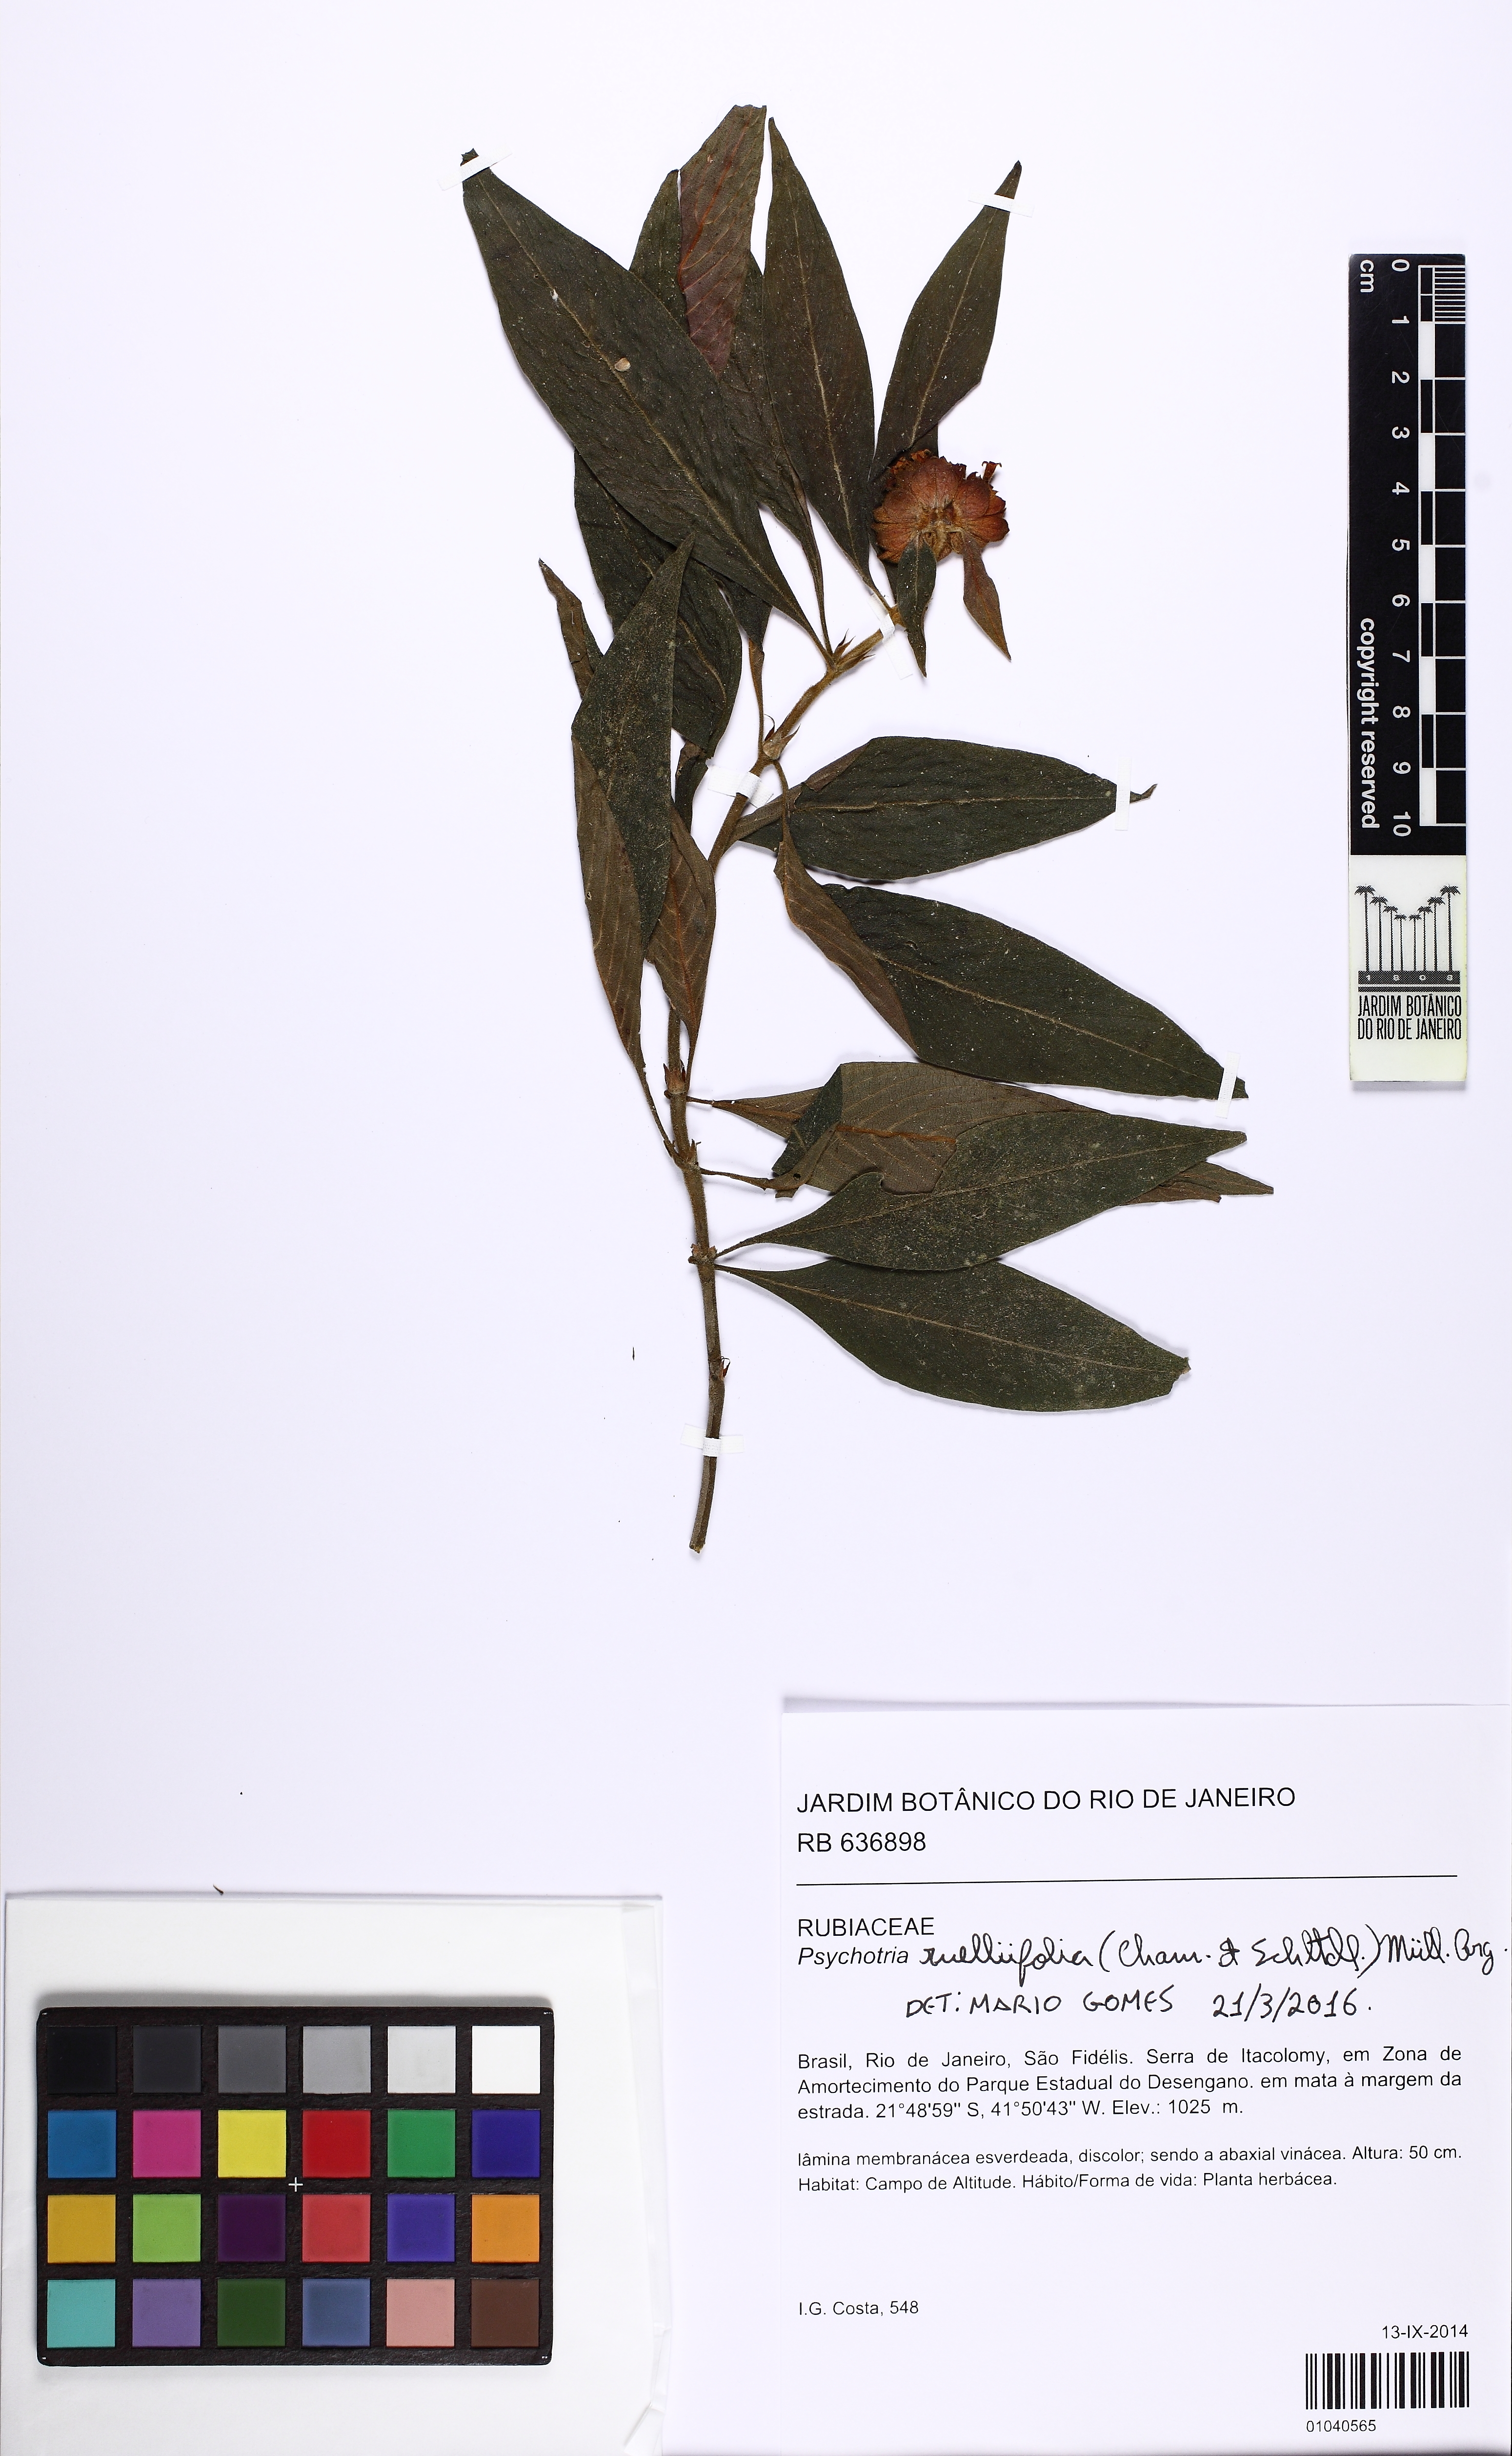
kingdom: Plantae
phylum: Tracheophyta
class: Magnoliopsida
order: Gentianales
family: Rubiaceae
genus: Palicourea
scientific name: Palicourea ruelliifolia
